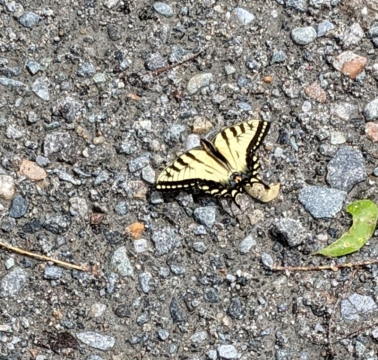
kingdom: Animalia
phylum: Arthropoda
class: Insecta
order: Lepidoptera
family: Papilionidae
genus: Pterourus
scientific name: Pterourus canadensis
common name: Canadian Tiger Swallowtail
